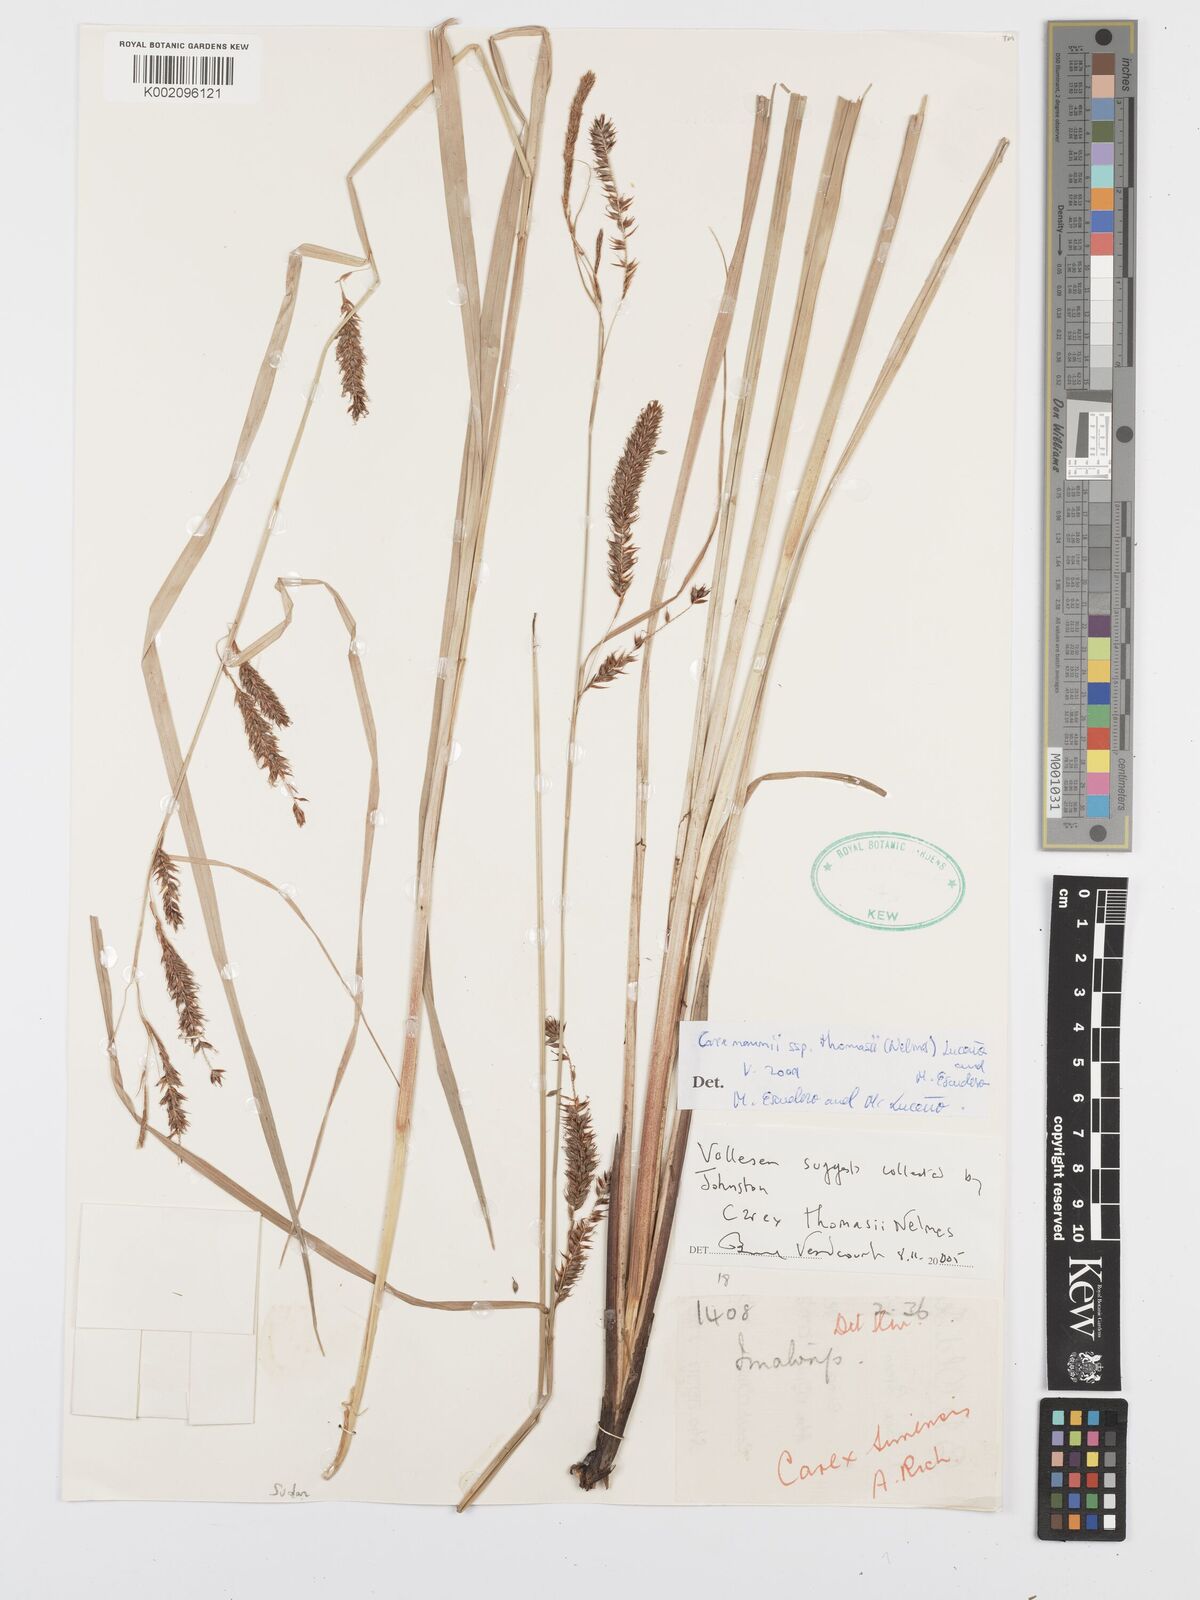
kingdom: Plantae
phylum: Tracheophyta
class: Liliopsida
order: Poales
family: Cyperaceae
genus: Carex
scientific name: Carex mannii
